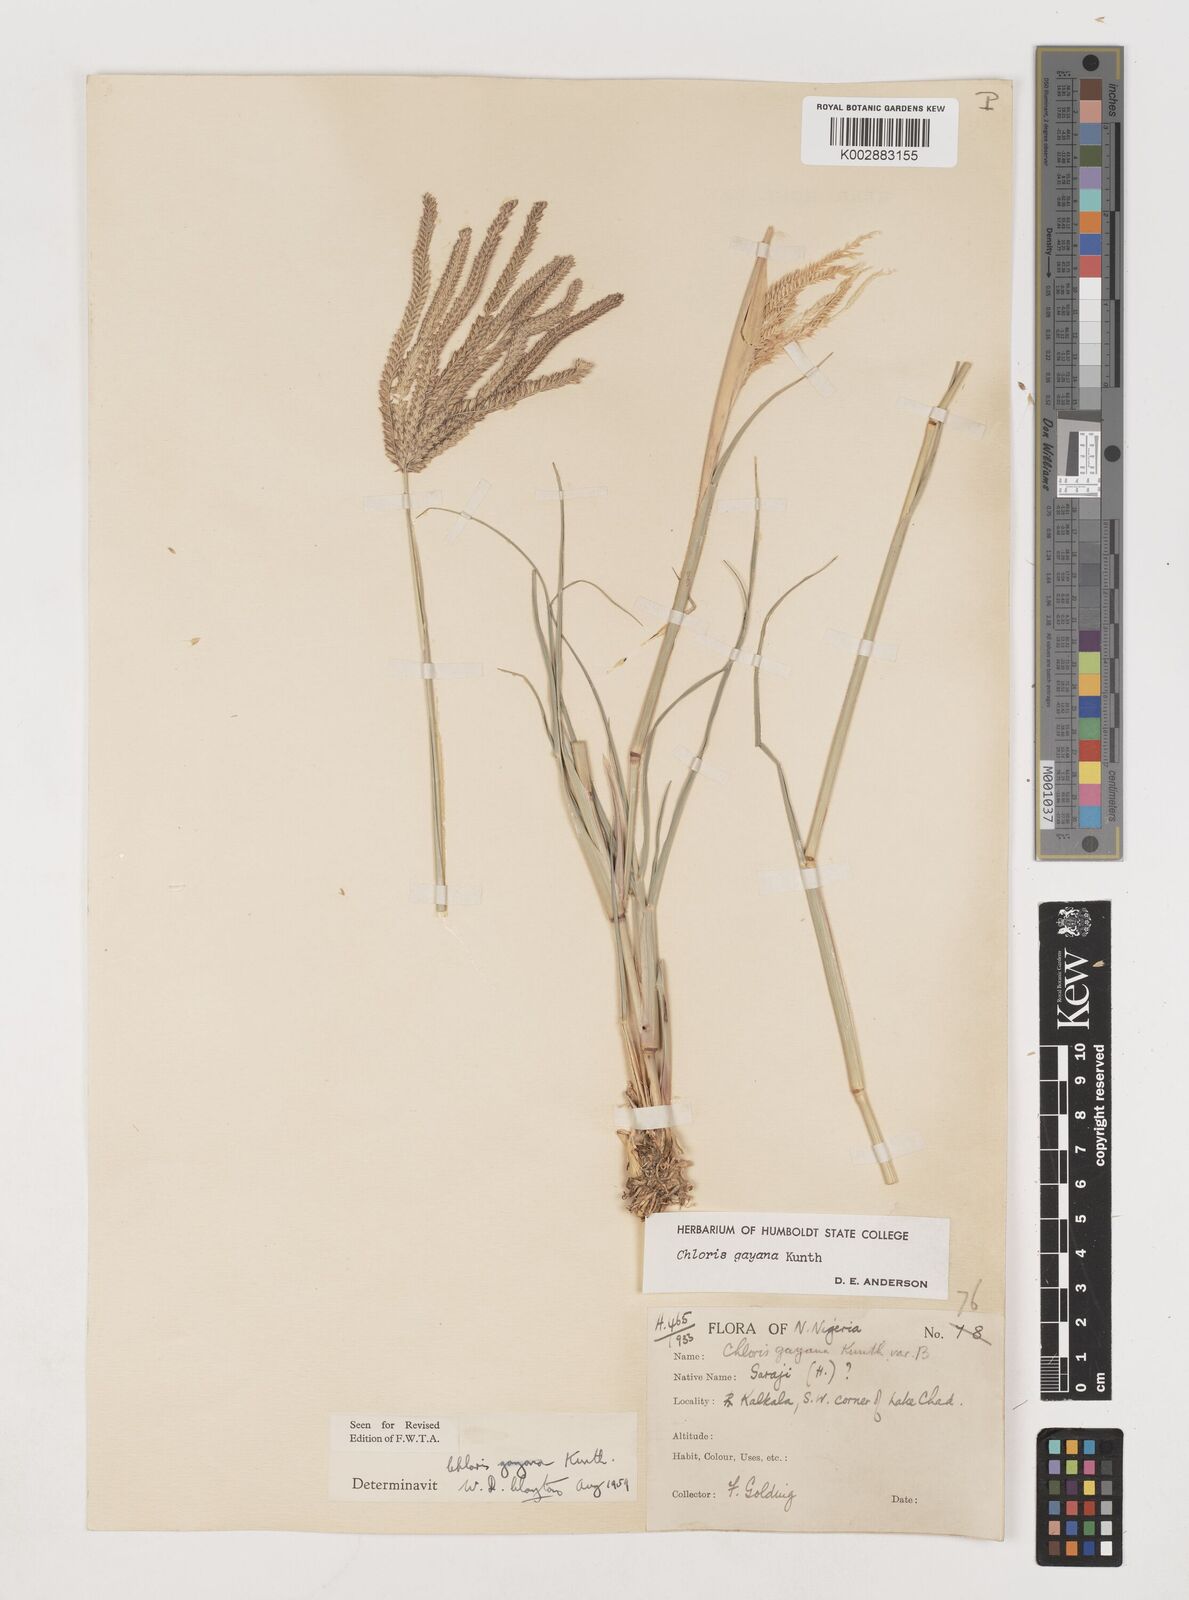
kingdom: Plantae
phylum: Tracheophyta
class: Liliopsida
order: Poales
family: Poaceae
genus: Chloris
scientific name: Chloris gayana
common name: Rhodes grass
